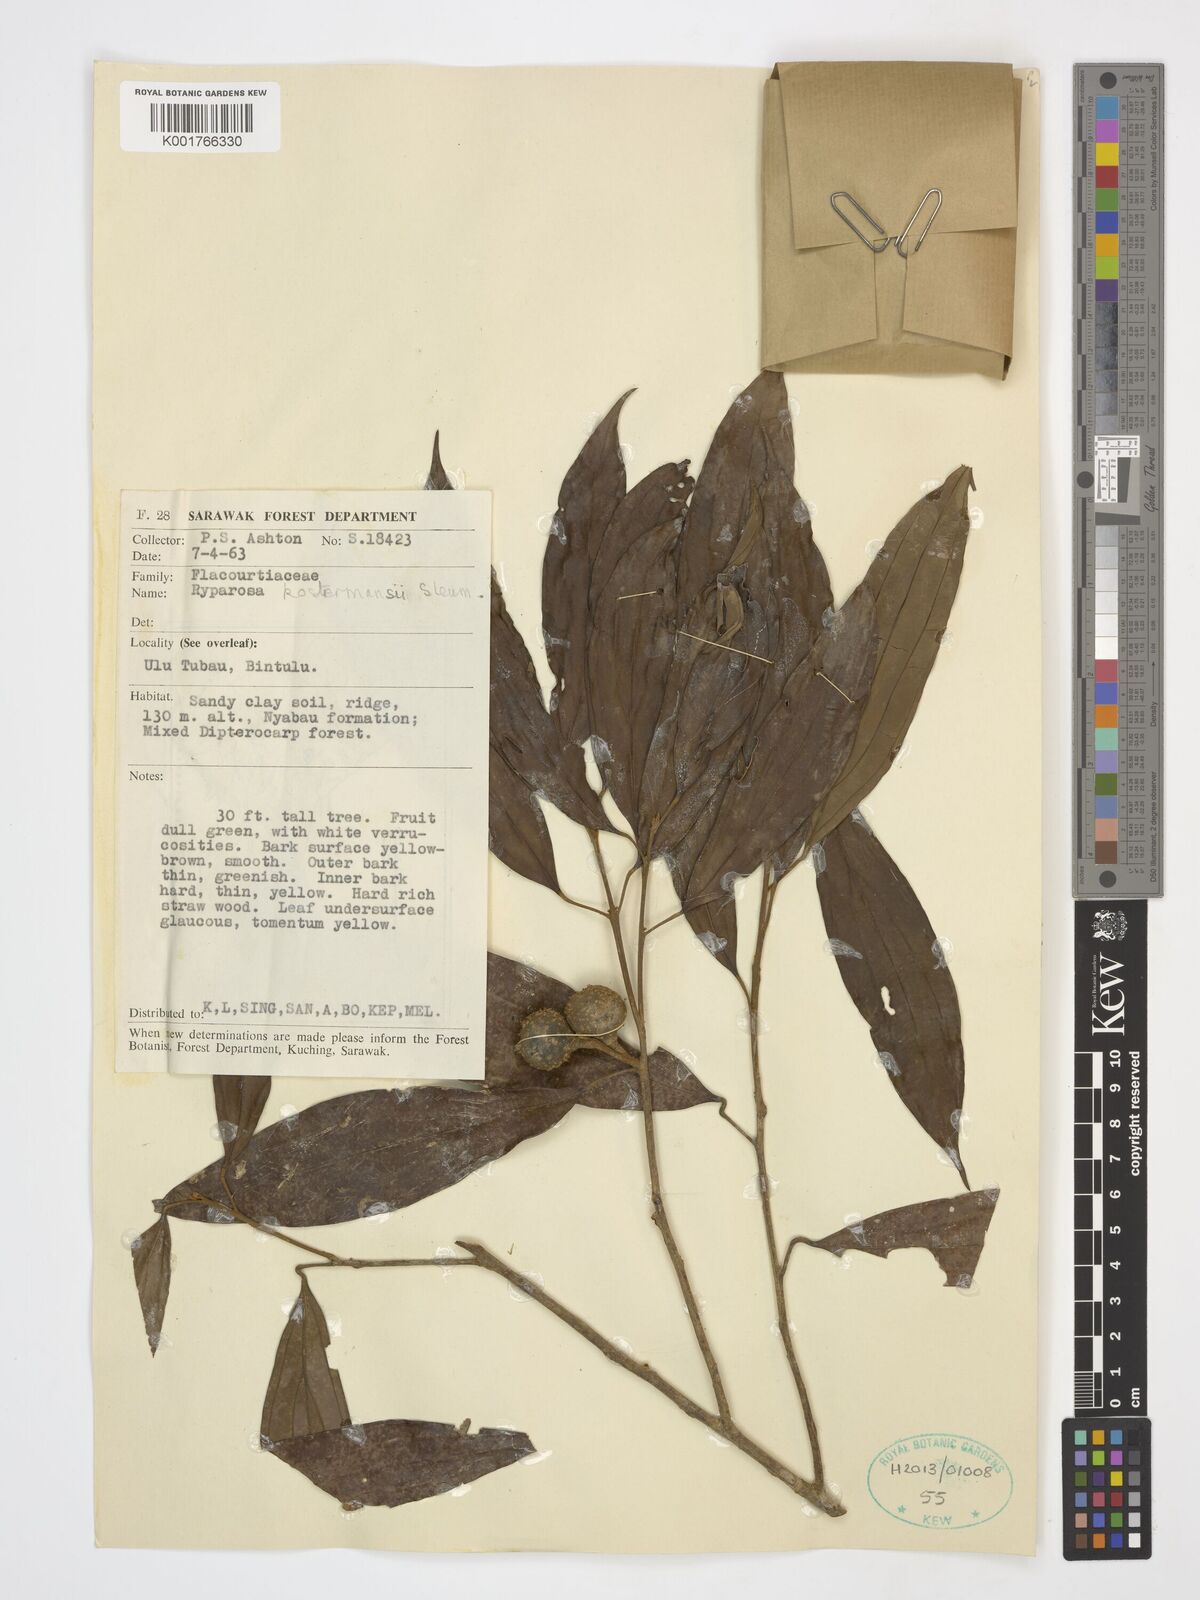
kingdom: Plantae
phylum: Tracheophyta
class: Magnoliopsida
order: Malpighiales
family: Achariaceae
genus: Ryparosa
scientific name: Ryparosa kostermansii
